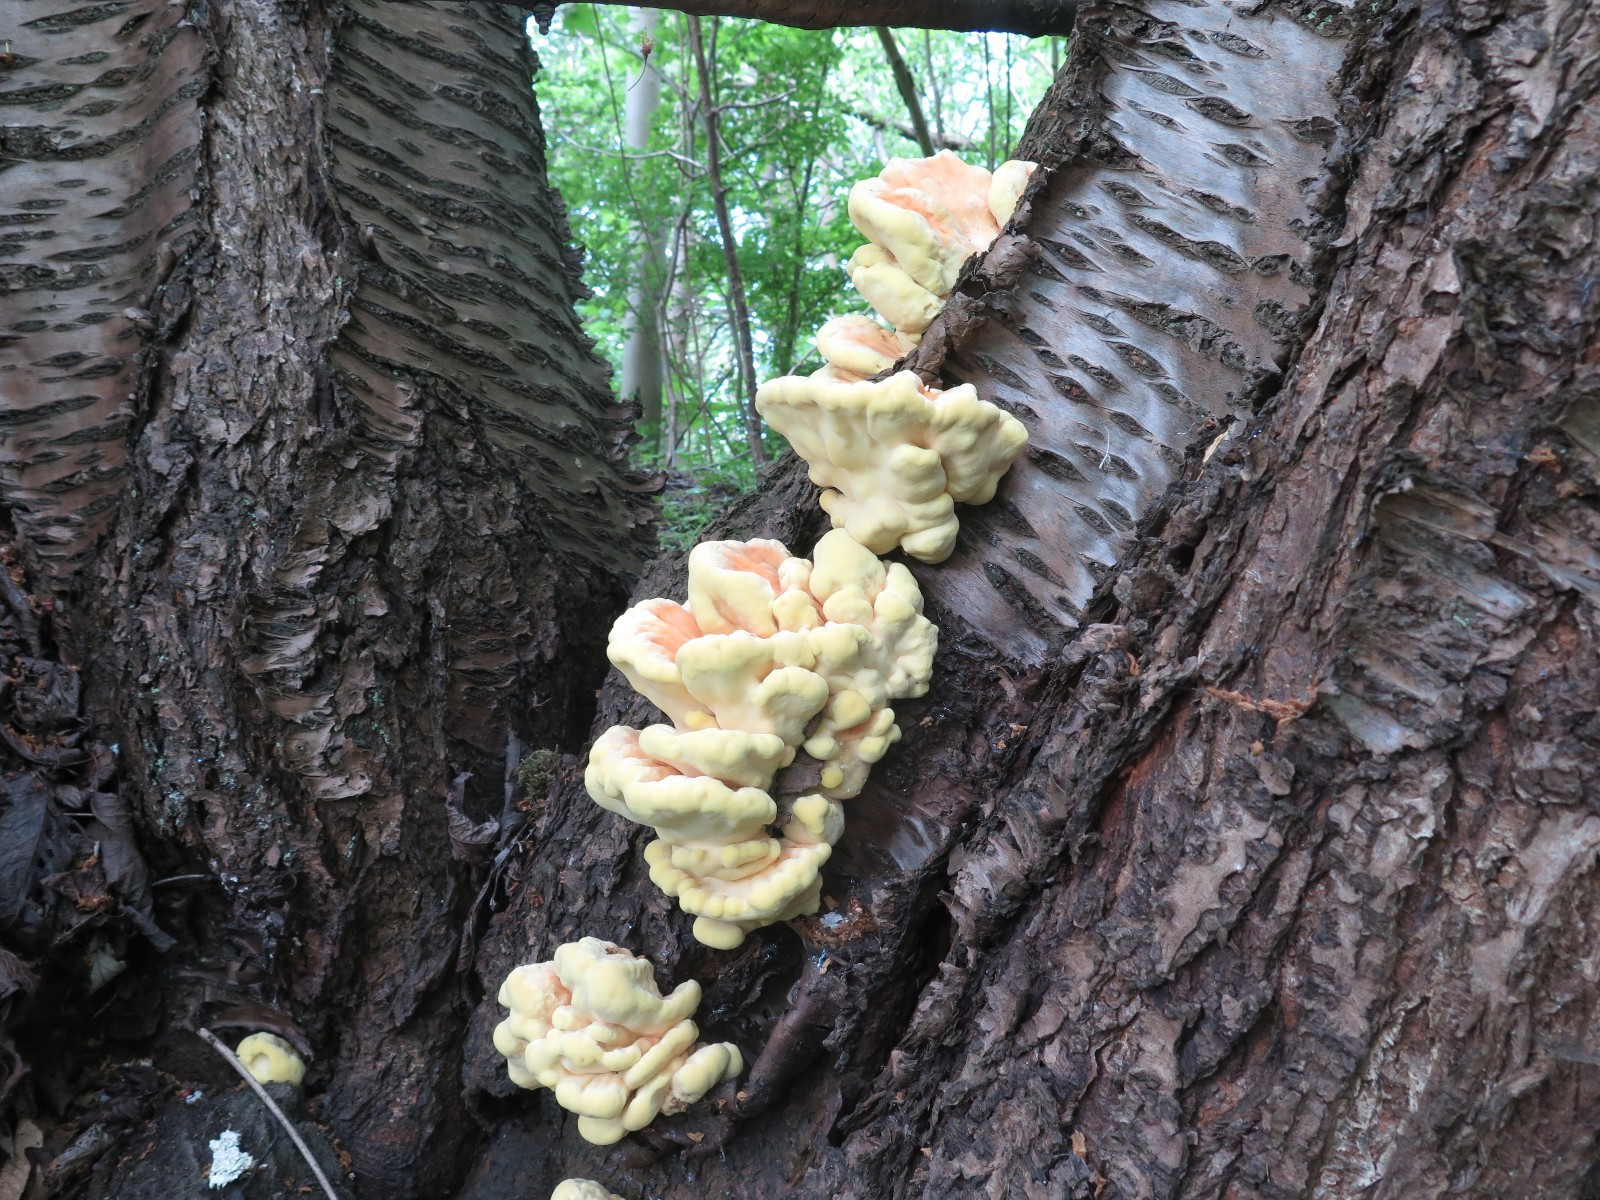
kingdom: Fungi
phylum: Basidiomycota
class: Agaricomycetes
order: Polyporales
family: Laetiporaceae
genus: Laetiporus
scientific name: Laetiporus sulphureus
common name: svovlporesvamp
